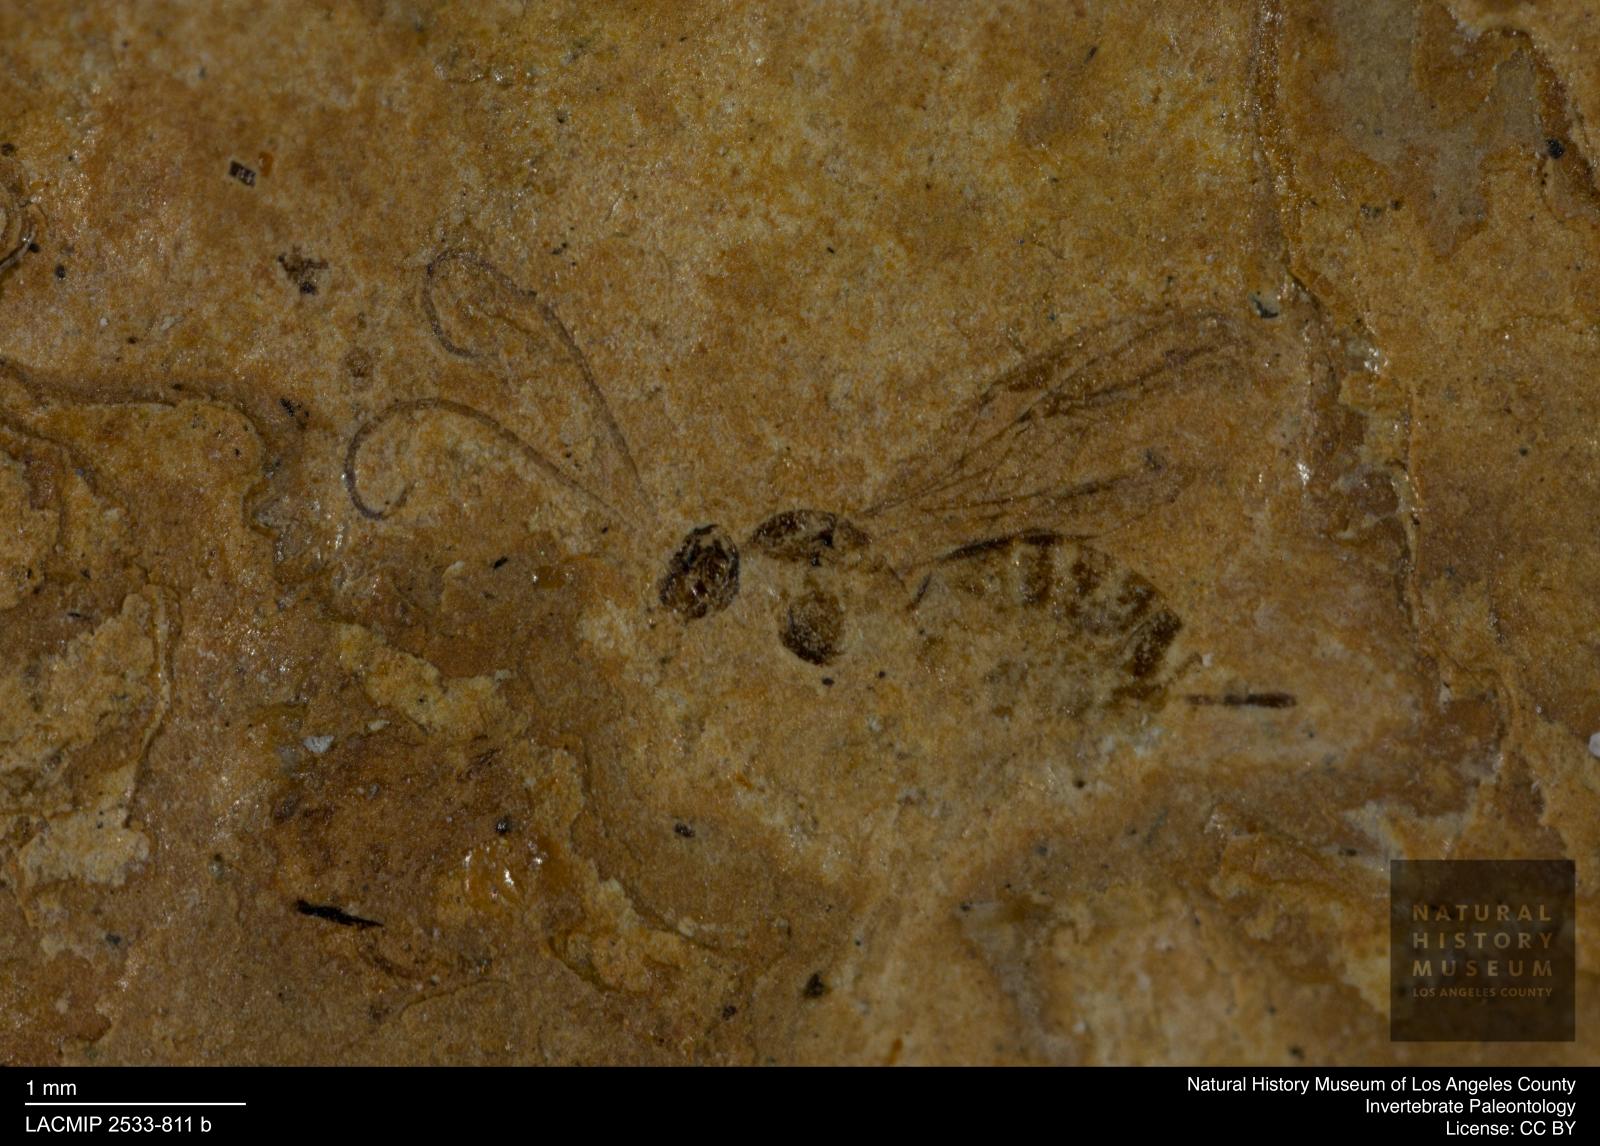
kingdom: Animalia
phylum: Arthropoda
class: Insecta
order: Hymenoptera
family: Braconidae
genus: Tanycarpa
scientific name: Tanycarpa interstitialis
